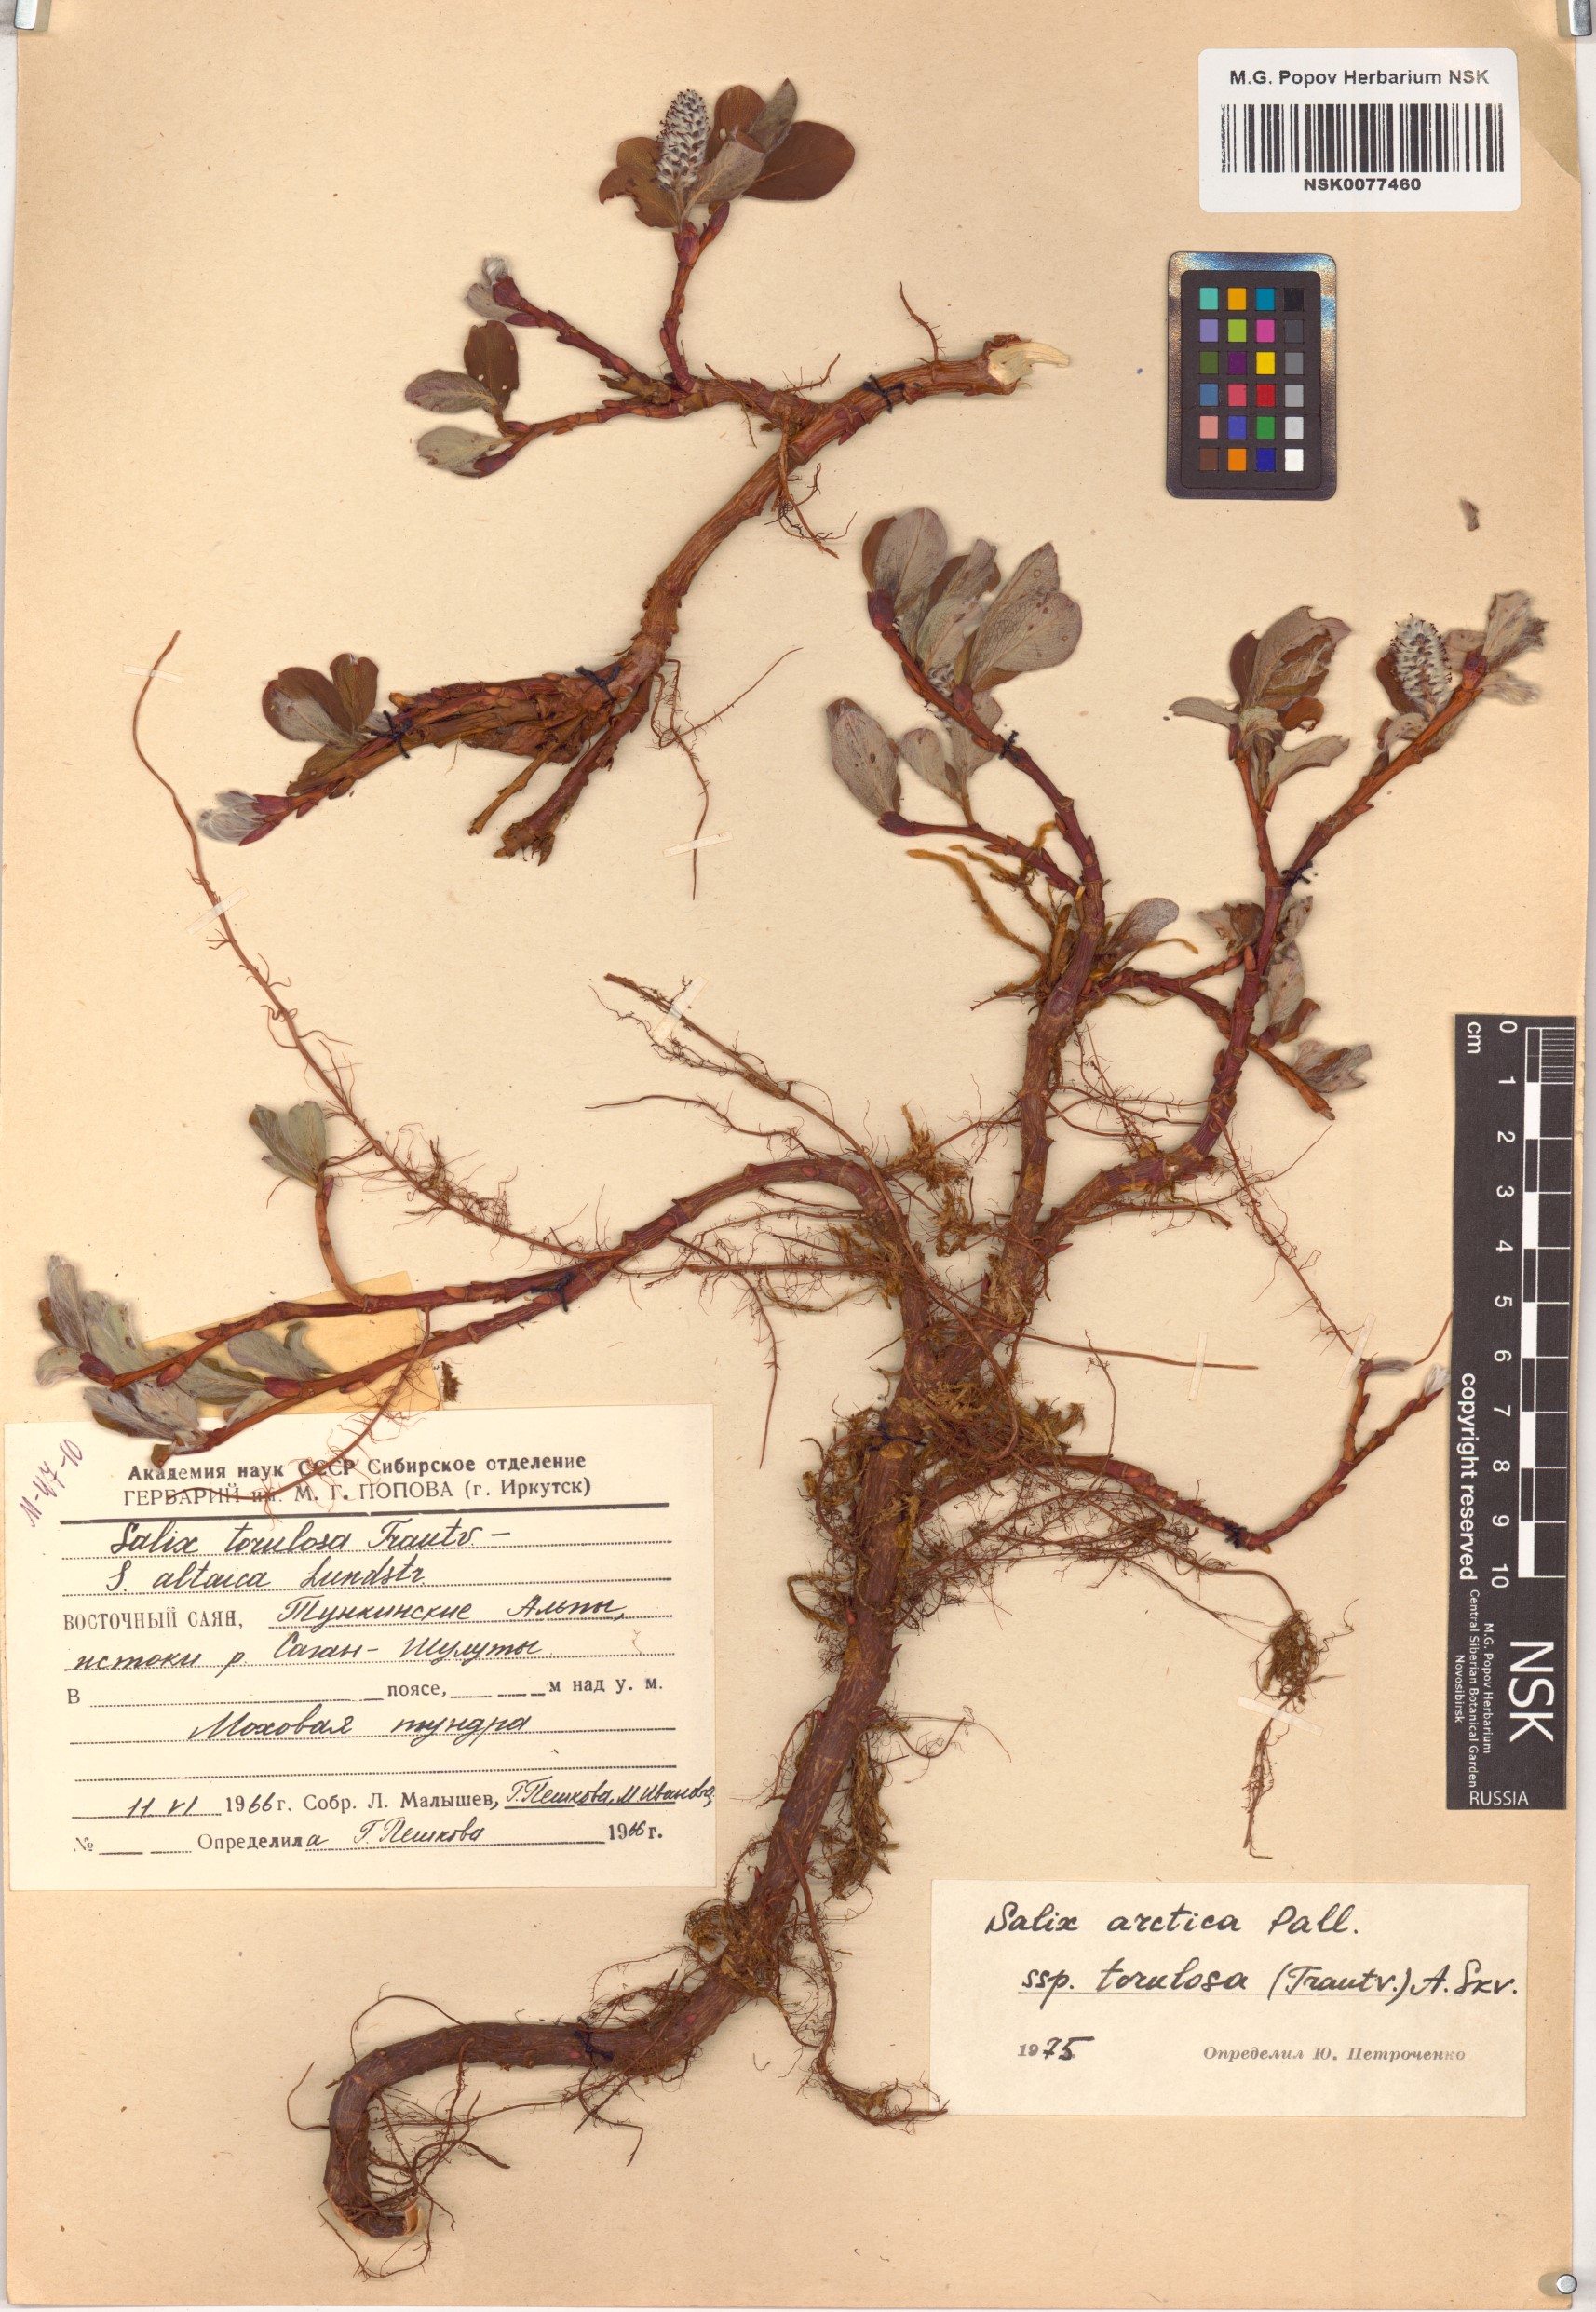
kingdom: Plantae
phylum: Tracheophyta
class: Magnoliopsida
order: Malpighiales
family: Salicaceae
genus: Salix
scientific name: Salix arctica
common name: Arctic willow
